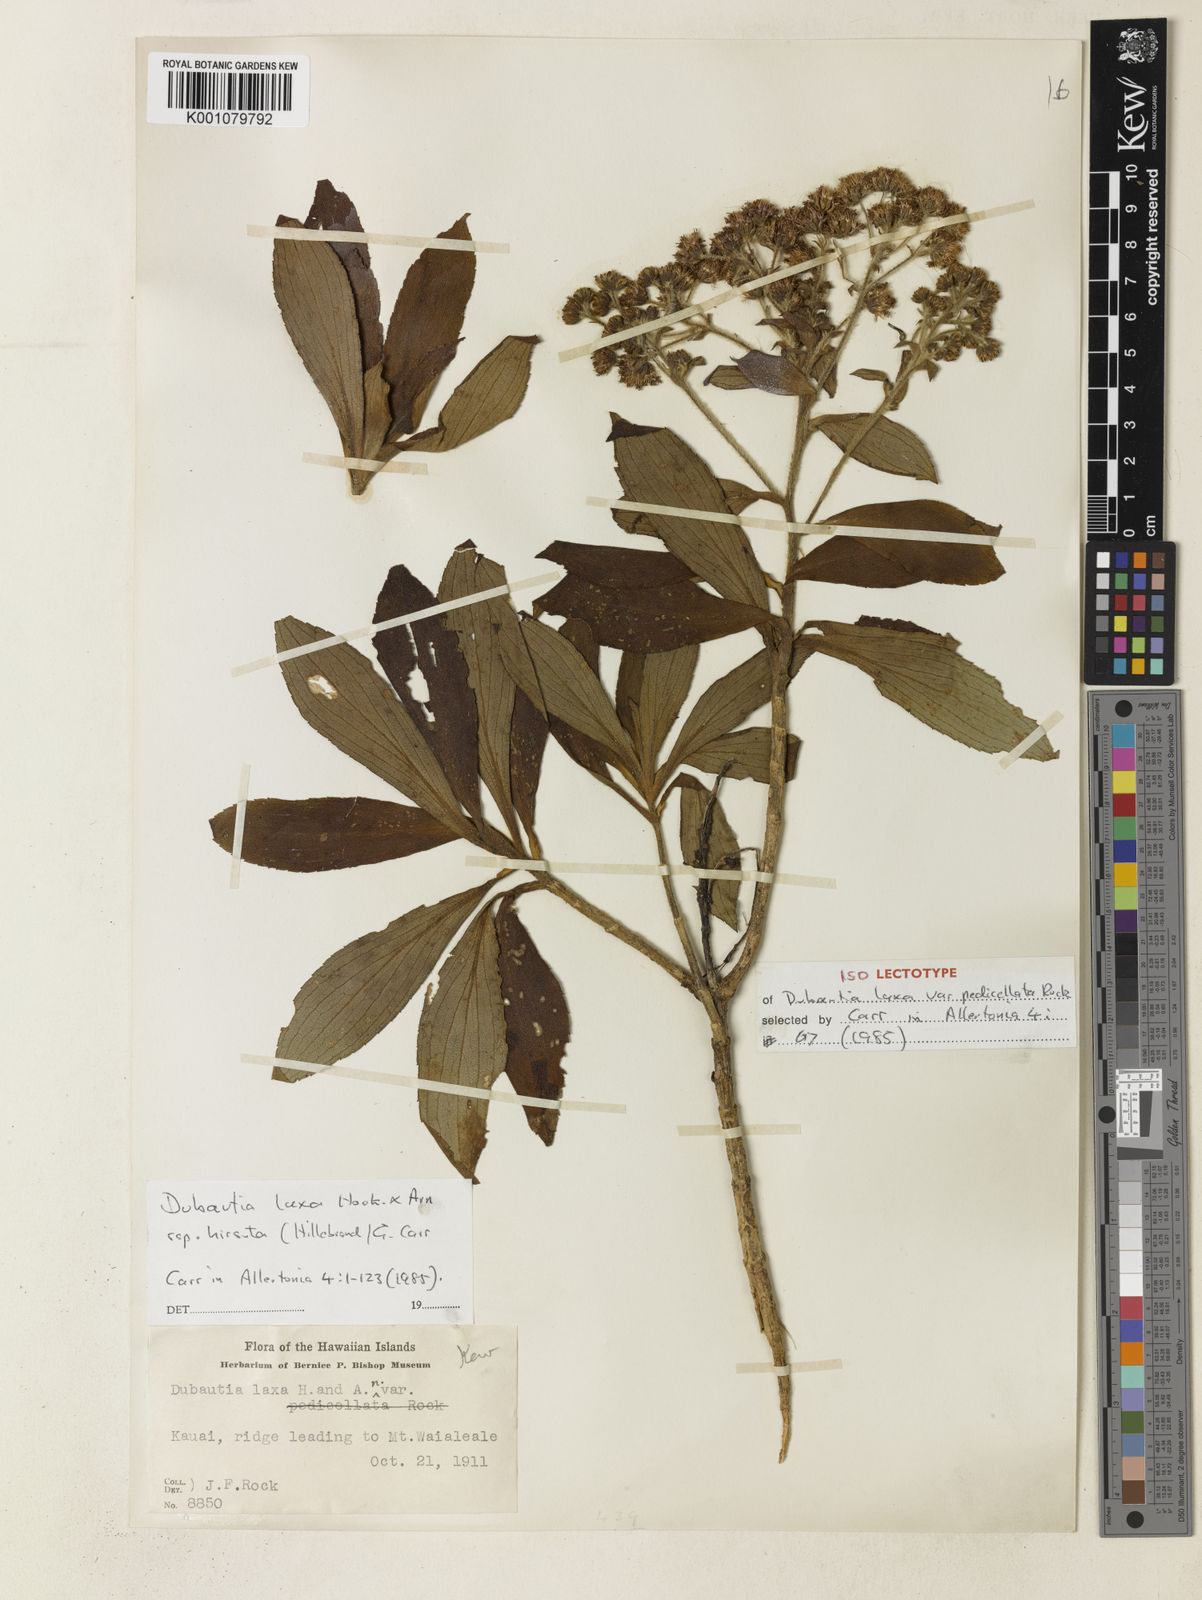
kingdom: Plantae
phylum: Tracheophyta
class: Magnoliopsida
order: Asterales
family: Asteraceae
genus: Dubautia
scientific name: Dubautia laxa
